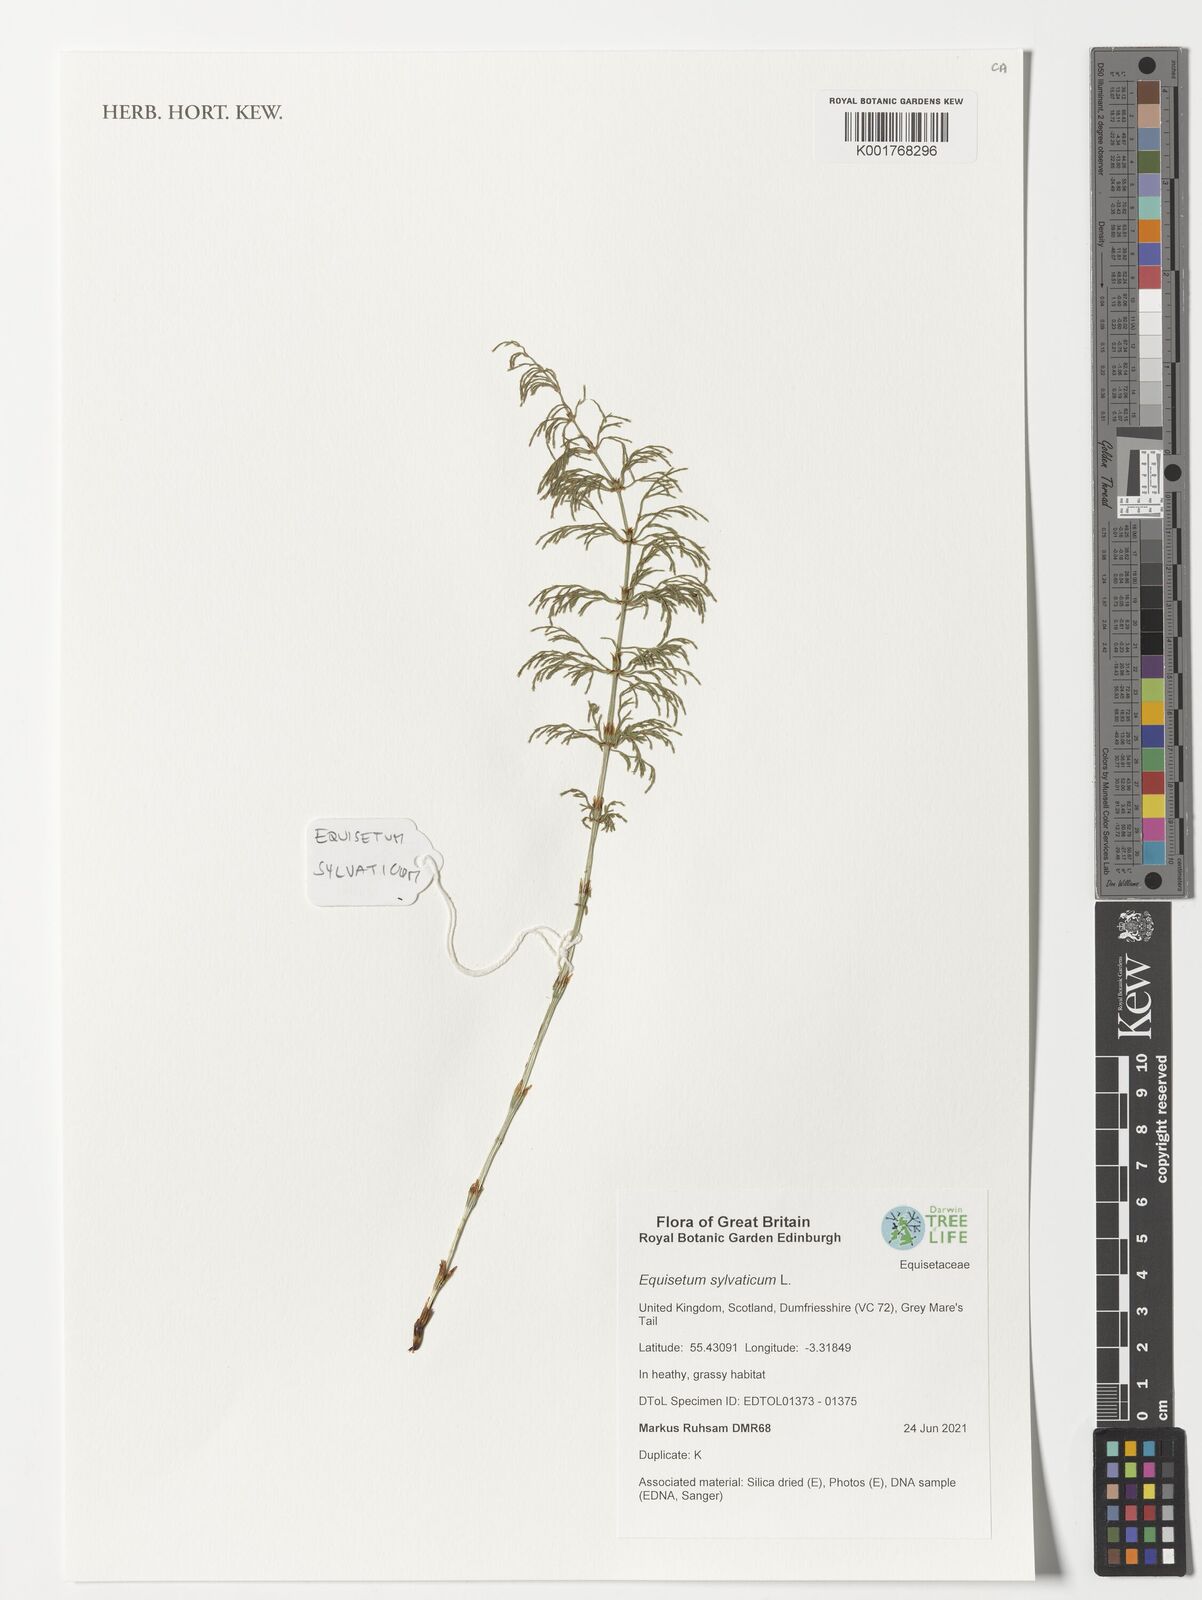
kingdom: Plantae
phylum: Tracheophyta
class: Polypodiopsida
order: Equisetales
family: Equisetaceae
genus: Equisetum
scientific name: Equisetum sylvaticum
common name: Wood horsetail
